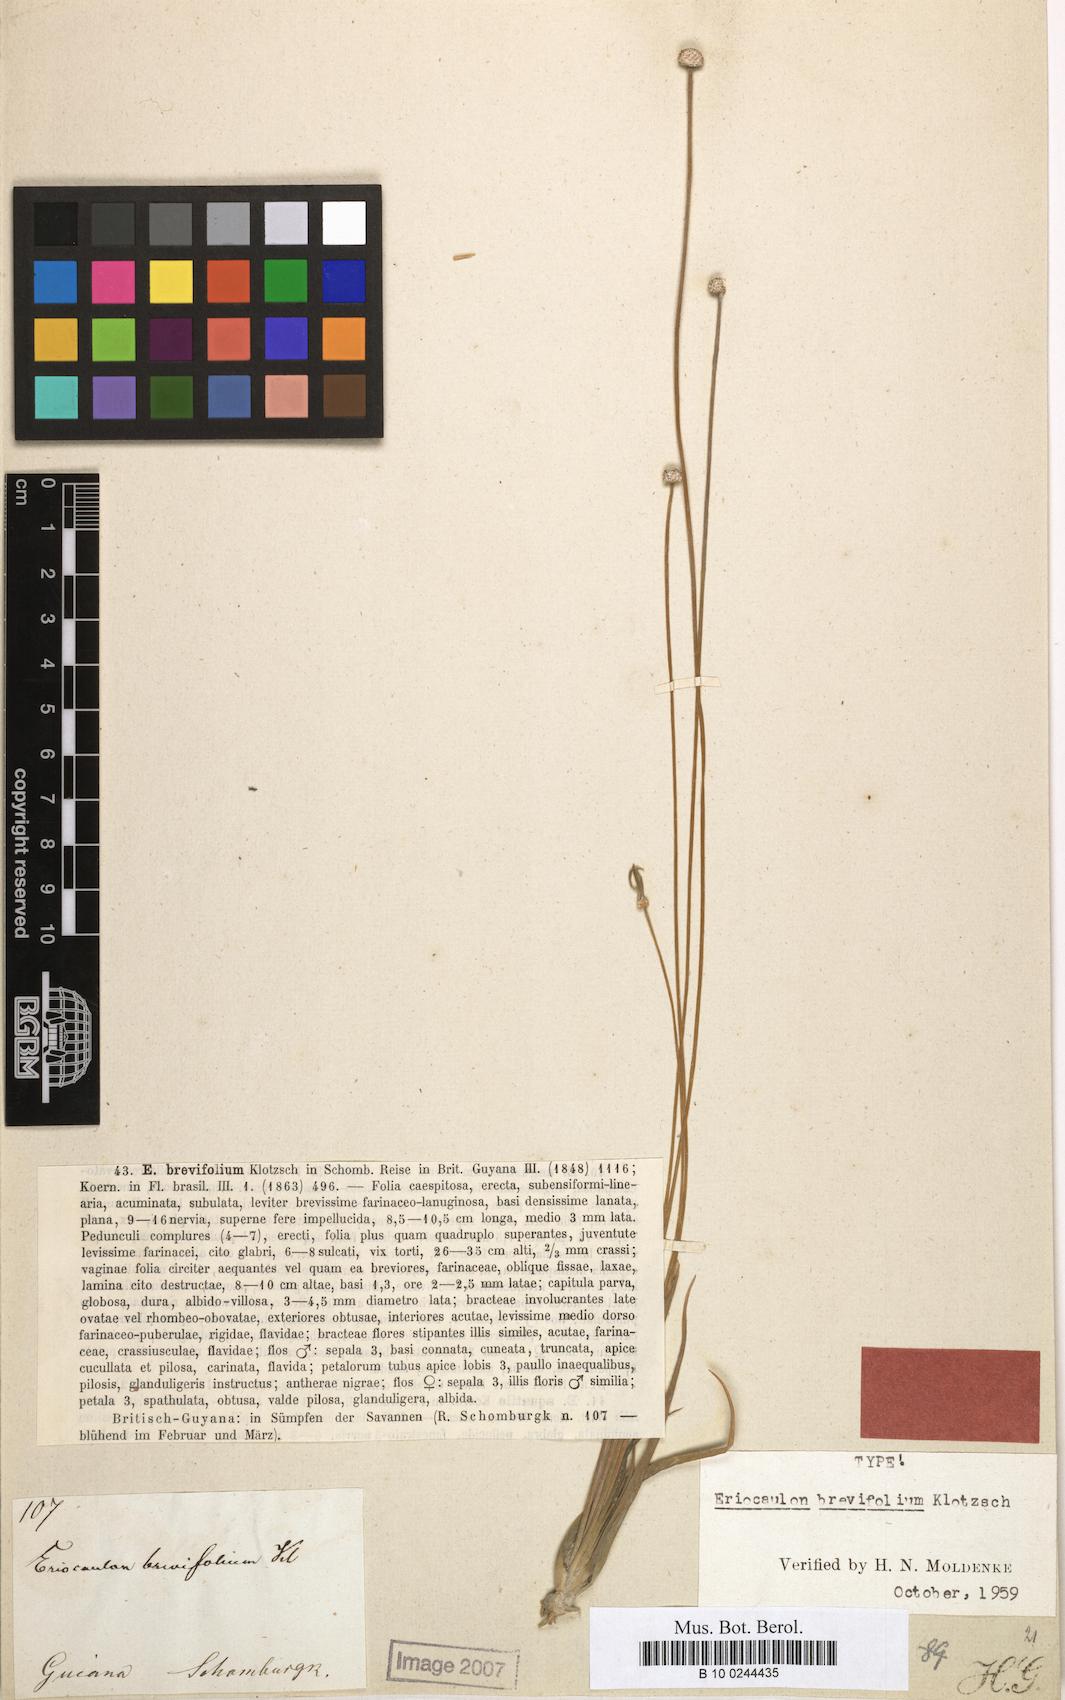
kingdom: Plantae
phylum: Tracheophyta
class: Liliopsida
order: Poales
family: Eriocaulaceae
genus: Eriocaulon
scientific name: Eriocaulon sellowianum
